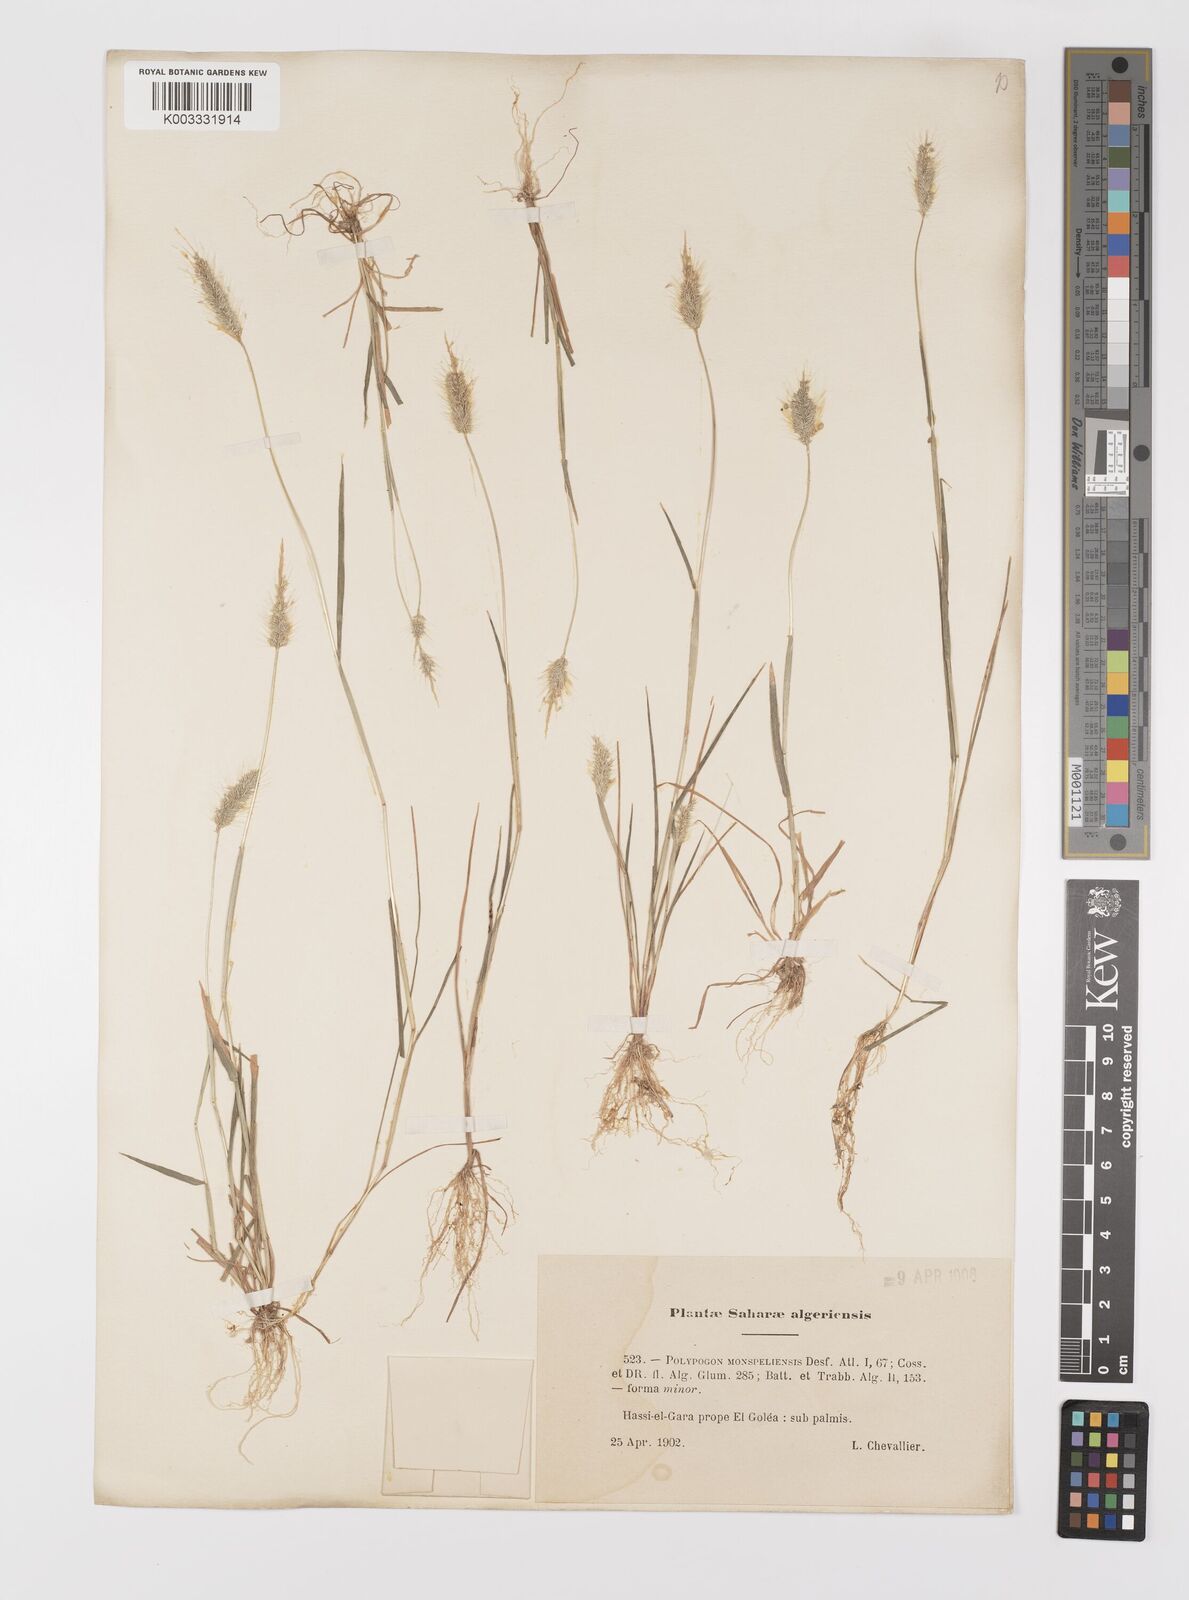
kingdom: Plantae
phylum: Tracheophyta
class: Liliopsida
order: Poales
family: Poaceae
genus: Polypogon
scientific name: Polypogon monspeliensis
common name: Annual rabbitsfoot grass
